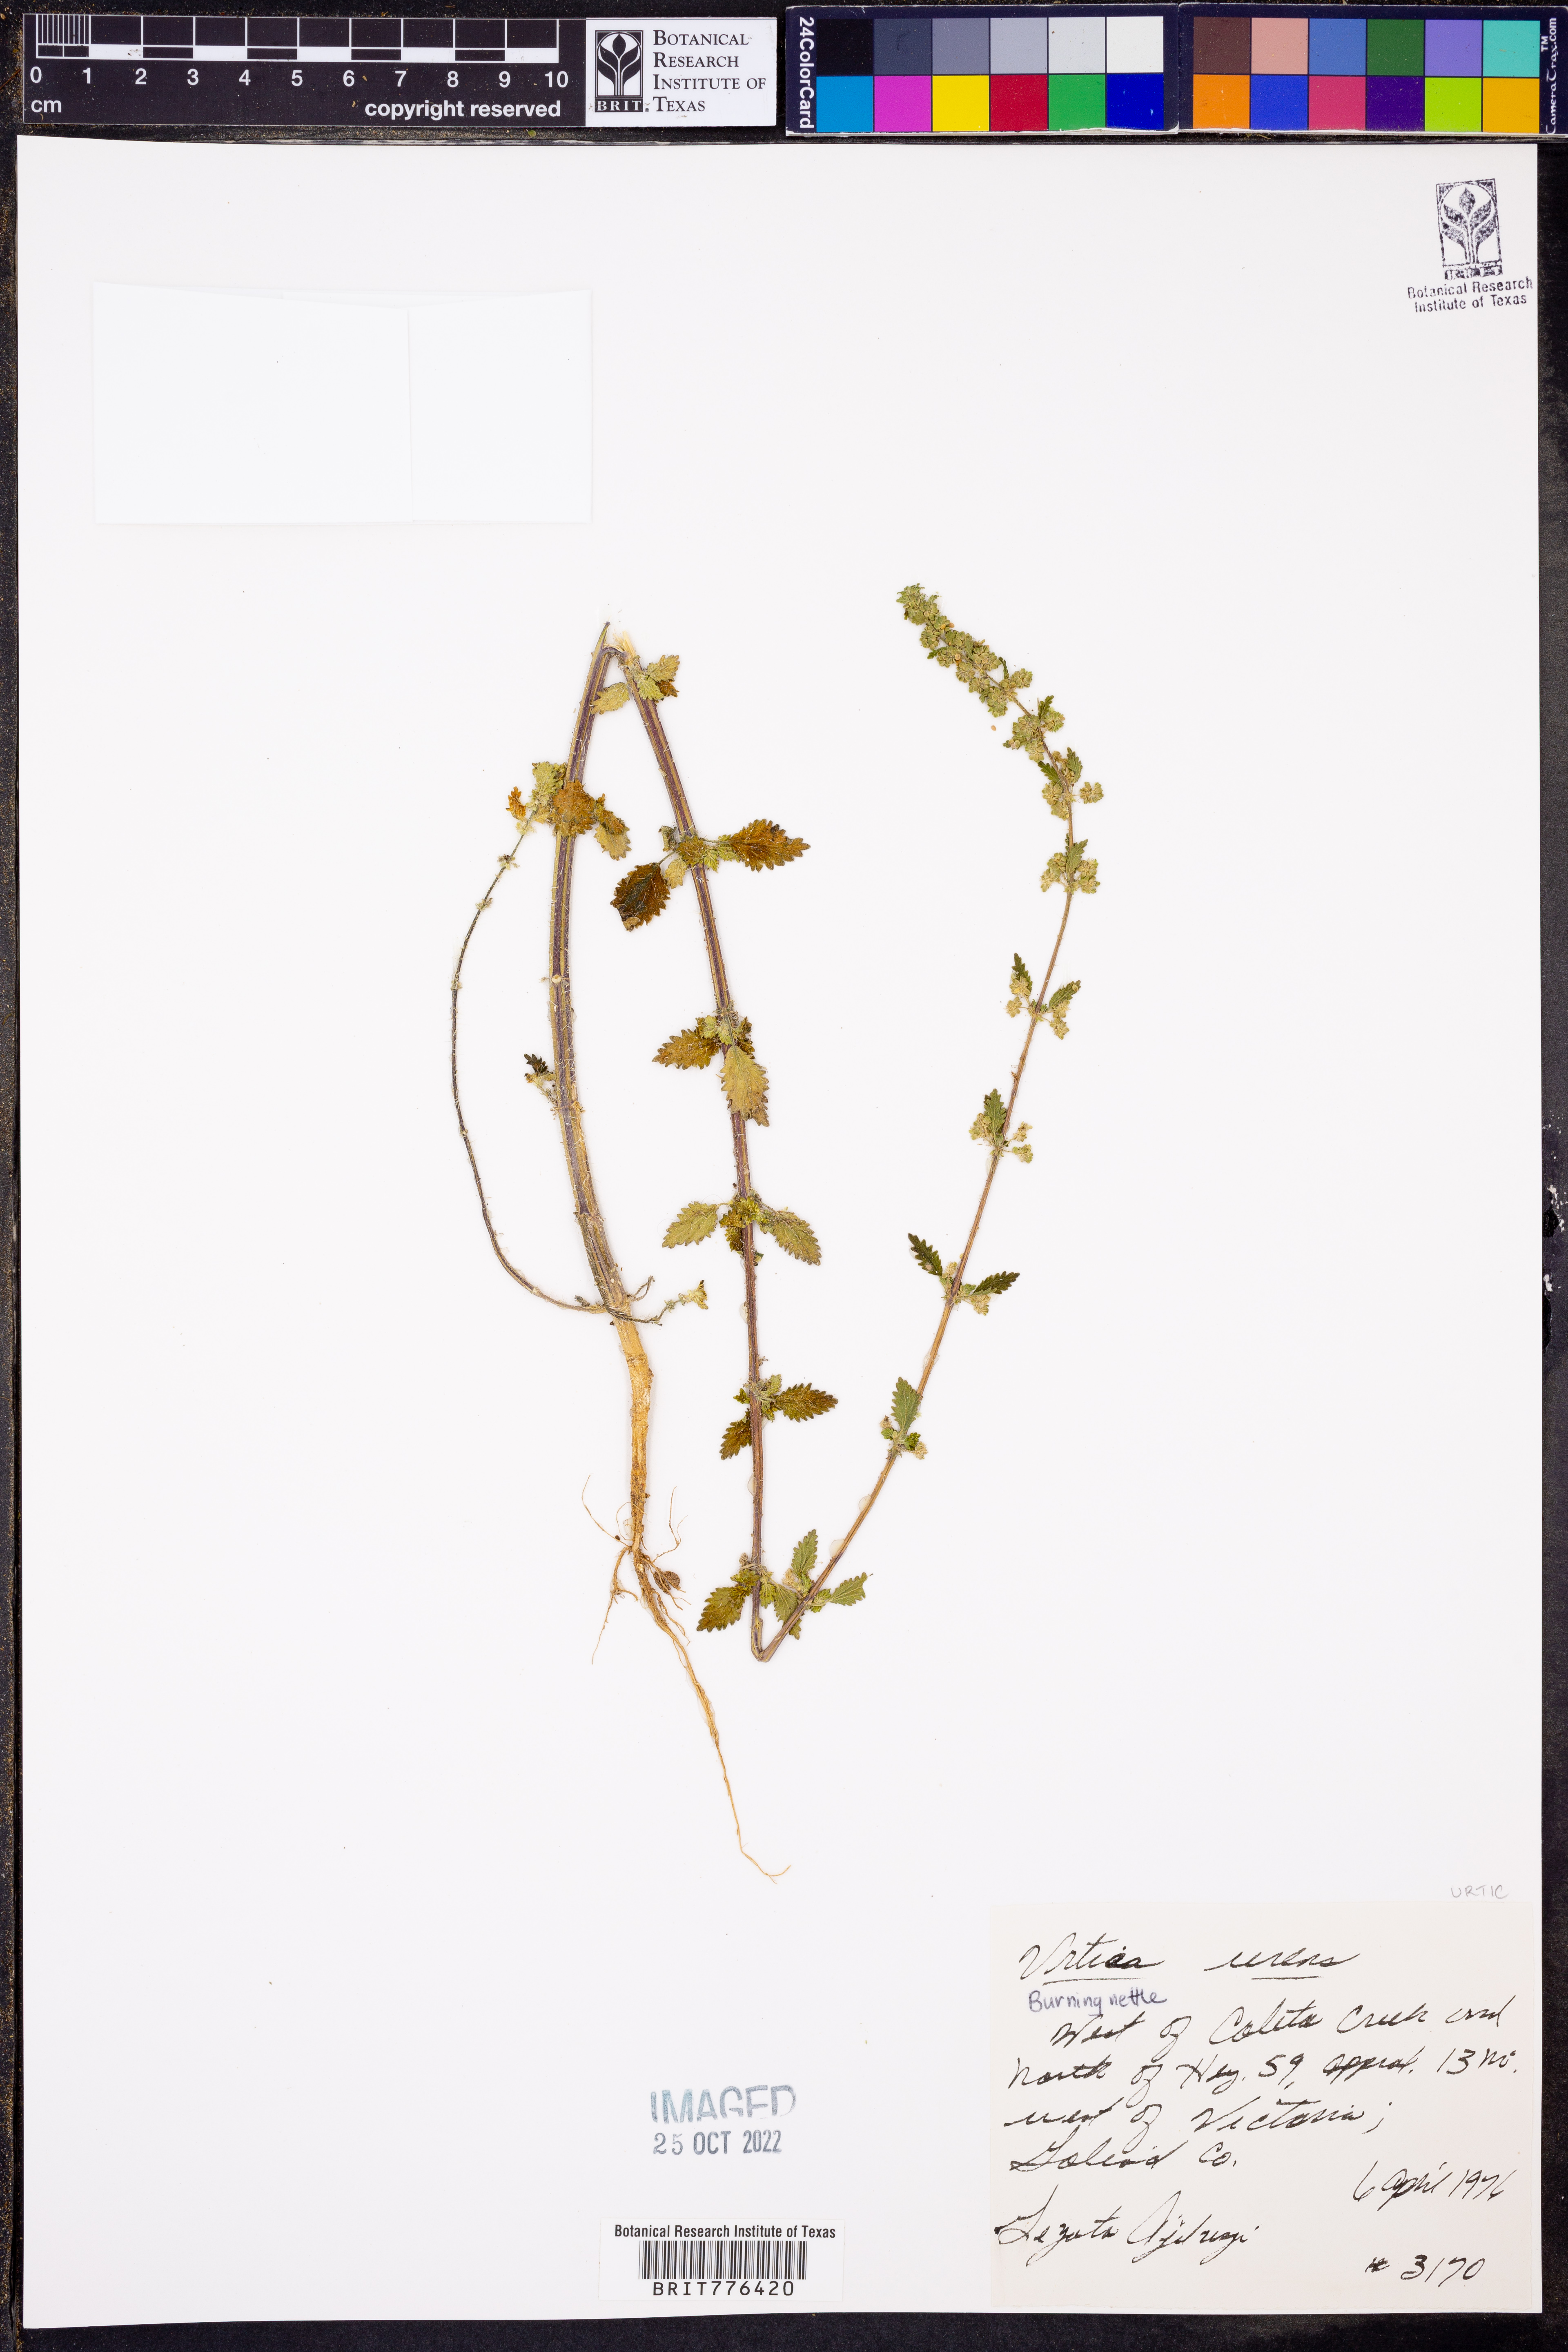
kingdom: Plantae
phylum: Tracheophyta
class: Magnoliopsida
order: Rosales
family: Urticaceae
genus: Urtica
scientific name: Urtica urens
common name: Dwarf nettle
